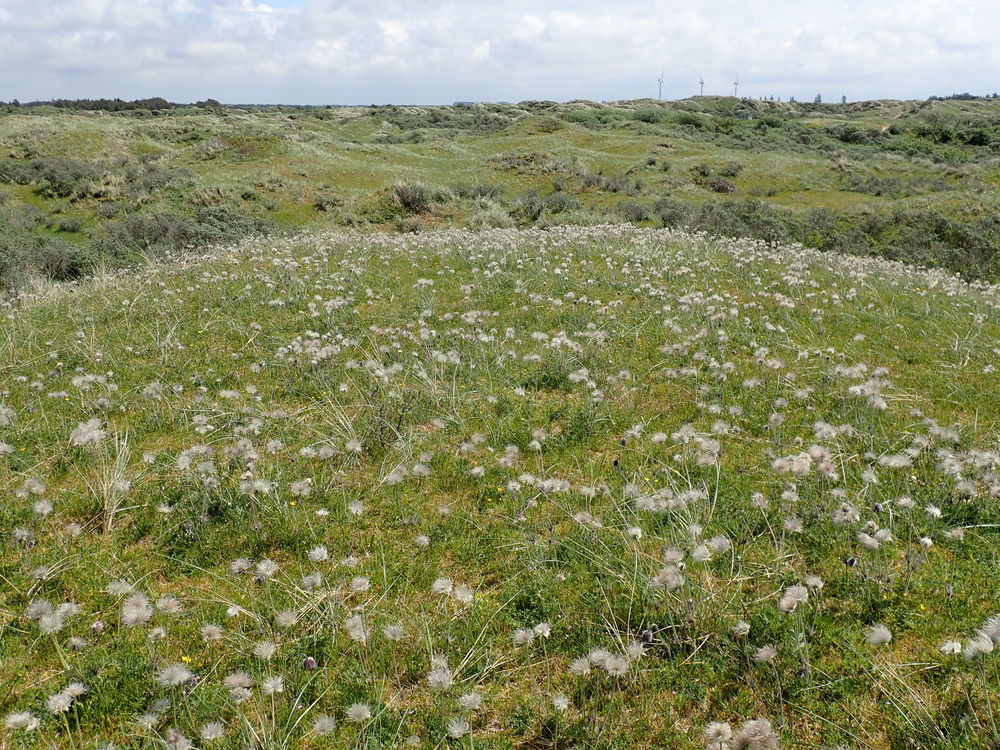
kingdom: Plantae
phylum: Tracheophyta
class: Magnoliopsida
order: Ranunculales
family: Ranunculaceae
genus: Pulsatilla
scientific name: Pulsatilla pratensis
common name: Nikkende kobjælde
